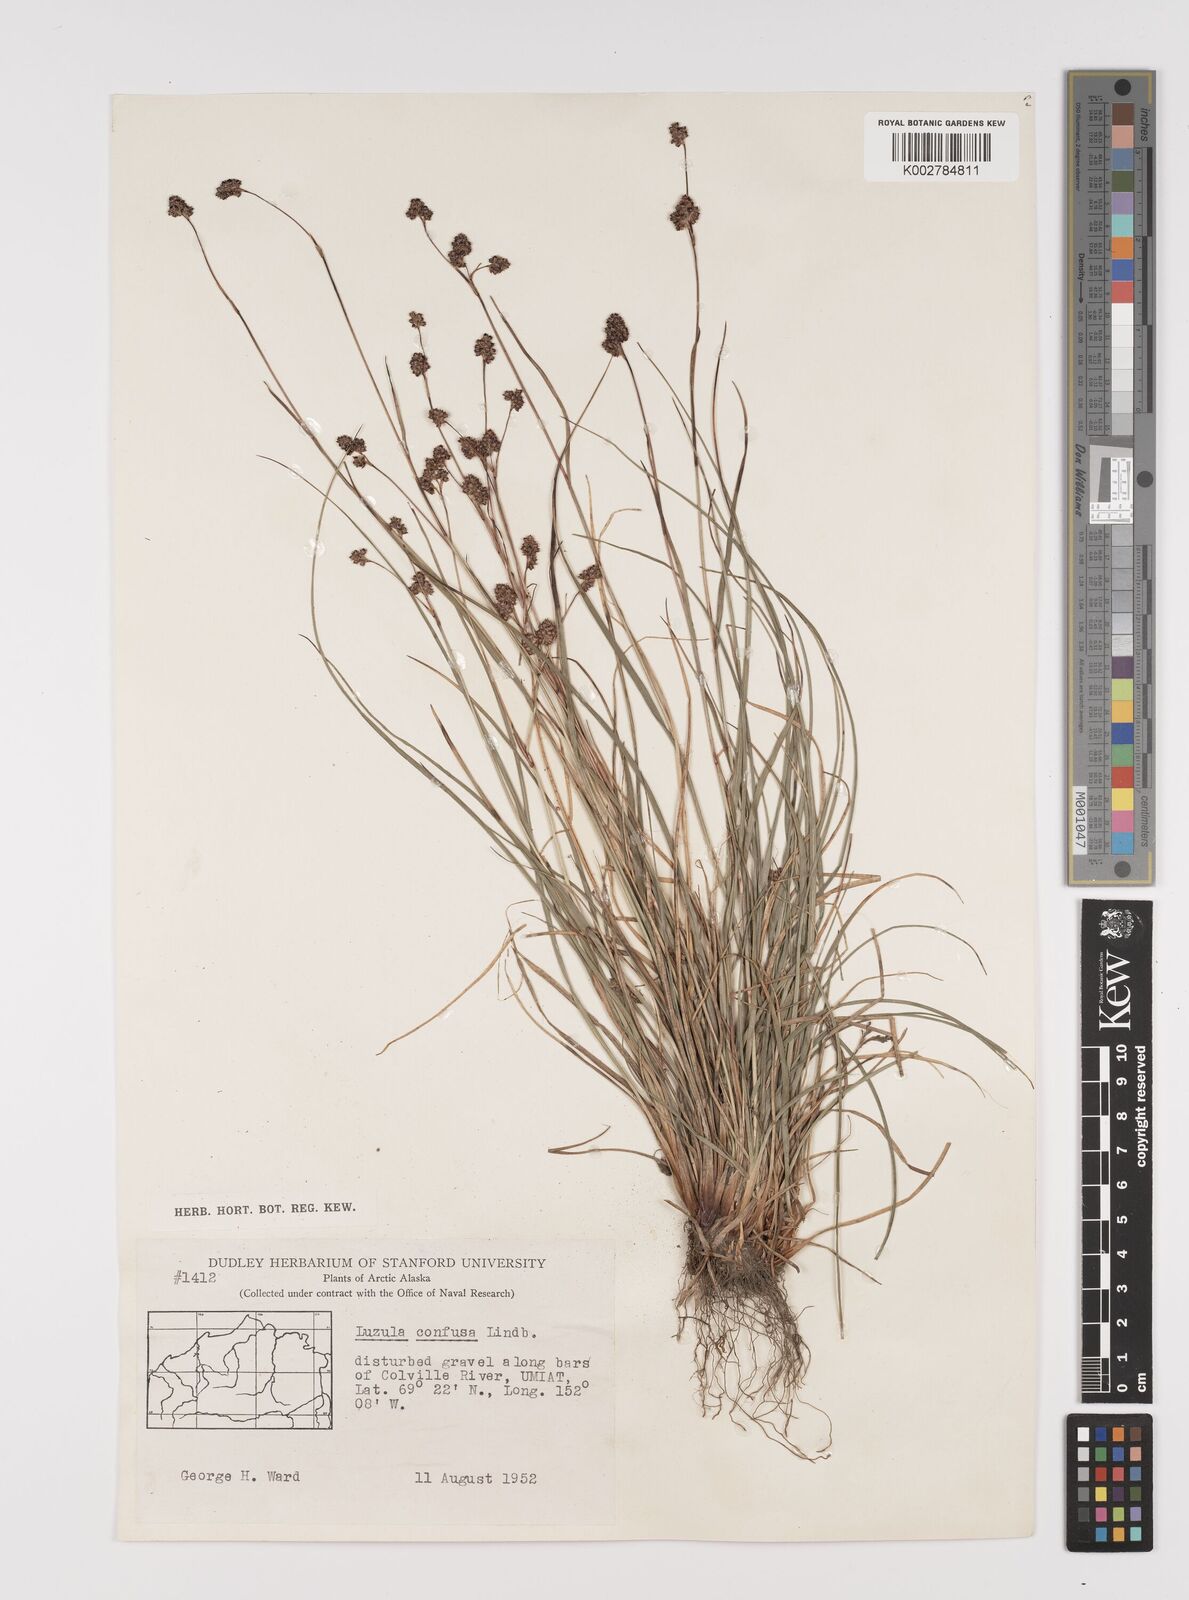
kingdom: Plantae
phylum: Tracheophyta
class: Liliopsida
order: Poales
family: Juncaceae
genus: Luzula
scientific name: Luzula confusa
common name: Northern wood rush
